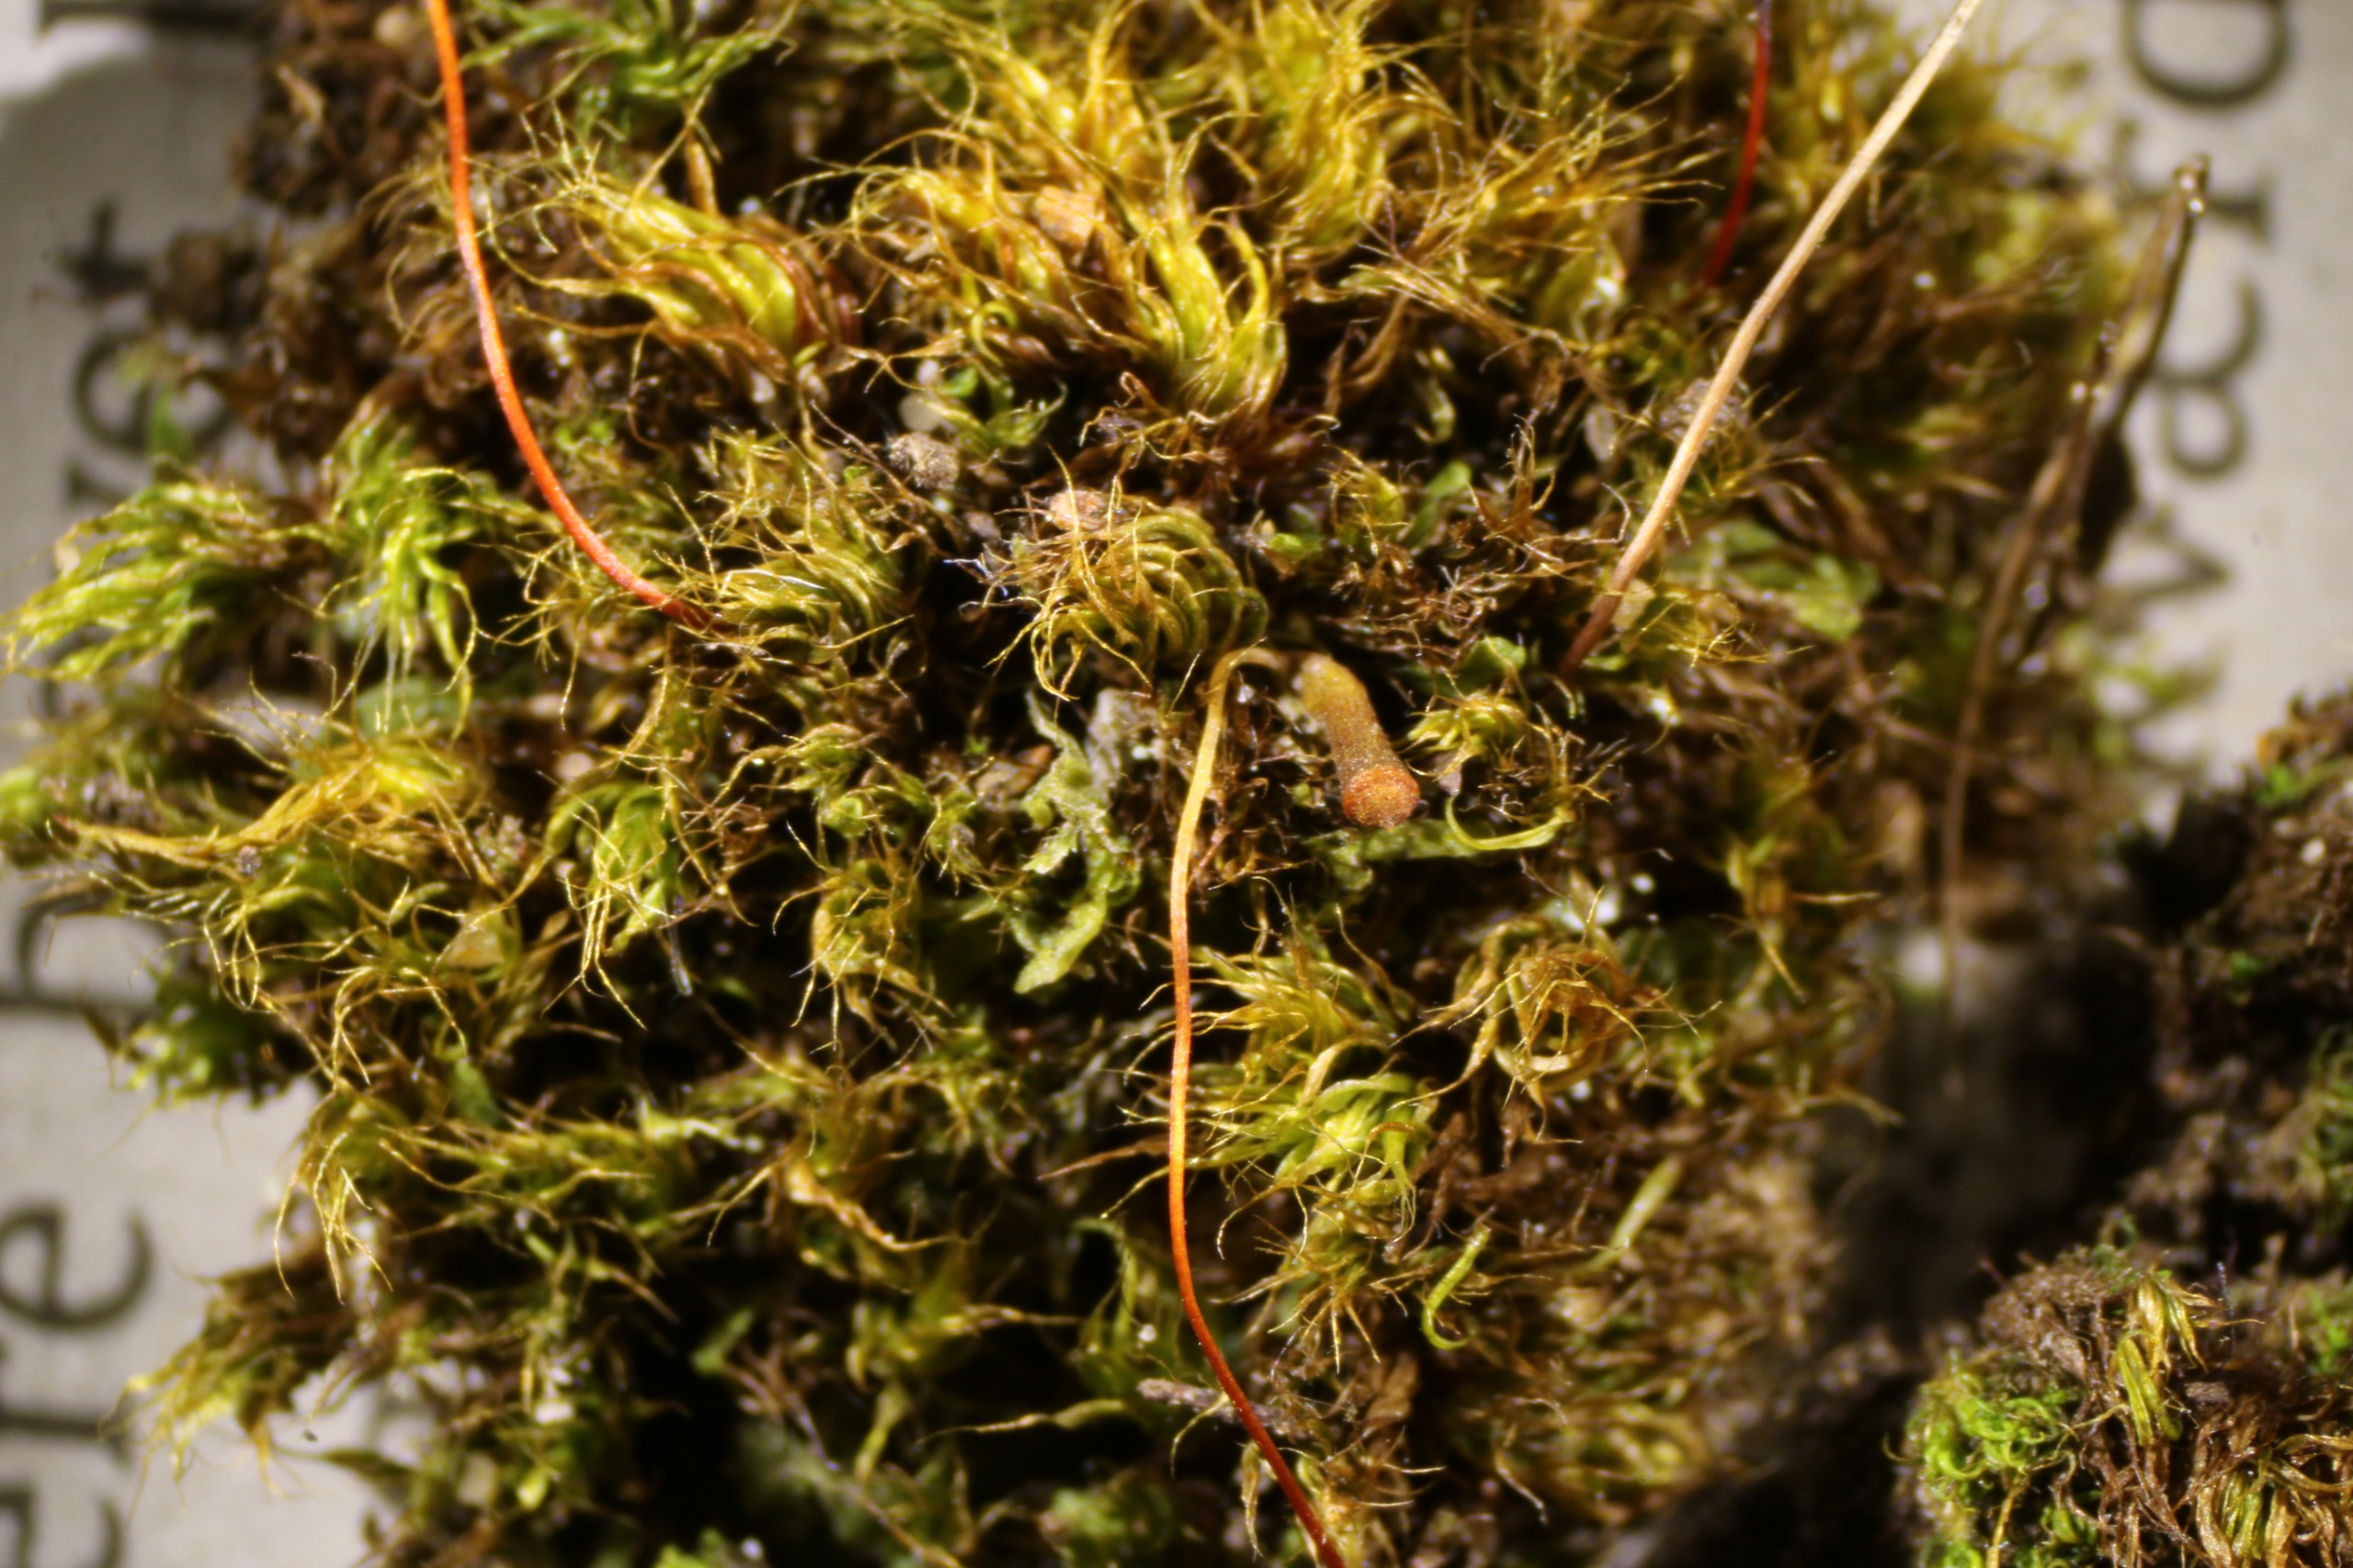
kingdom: Plantae
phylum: Bryophyta
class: Bryopsida
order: Bryales
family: Bryaceae
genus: Rosulabryum
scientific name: Rosulabryum capillare
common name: Hårspidset bryum
